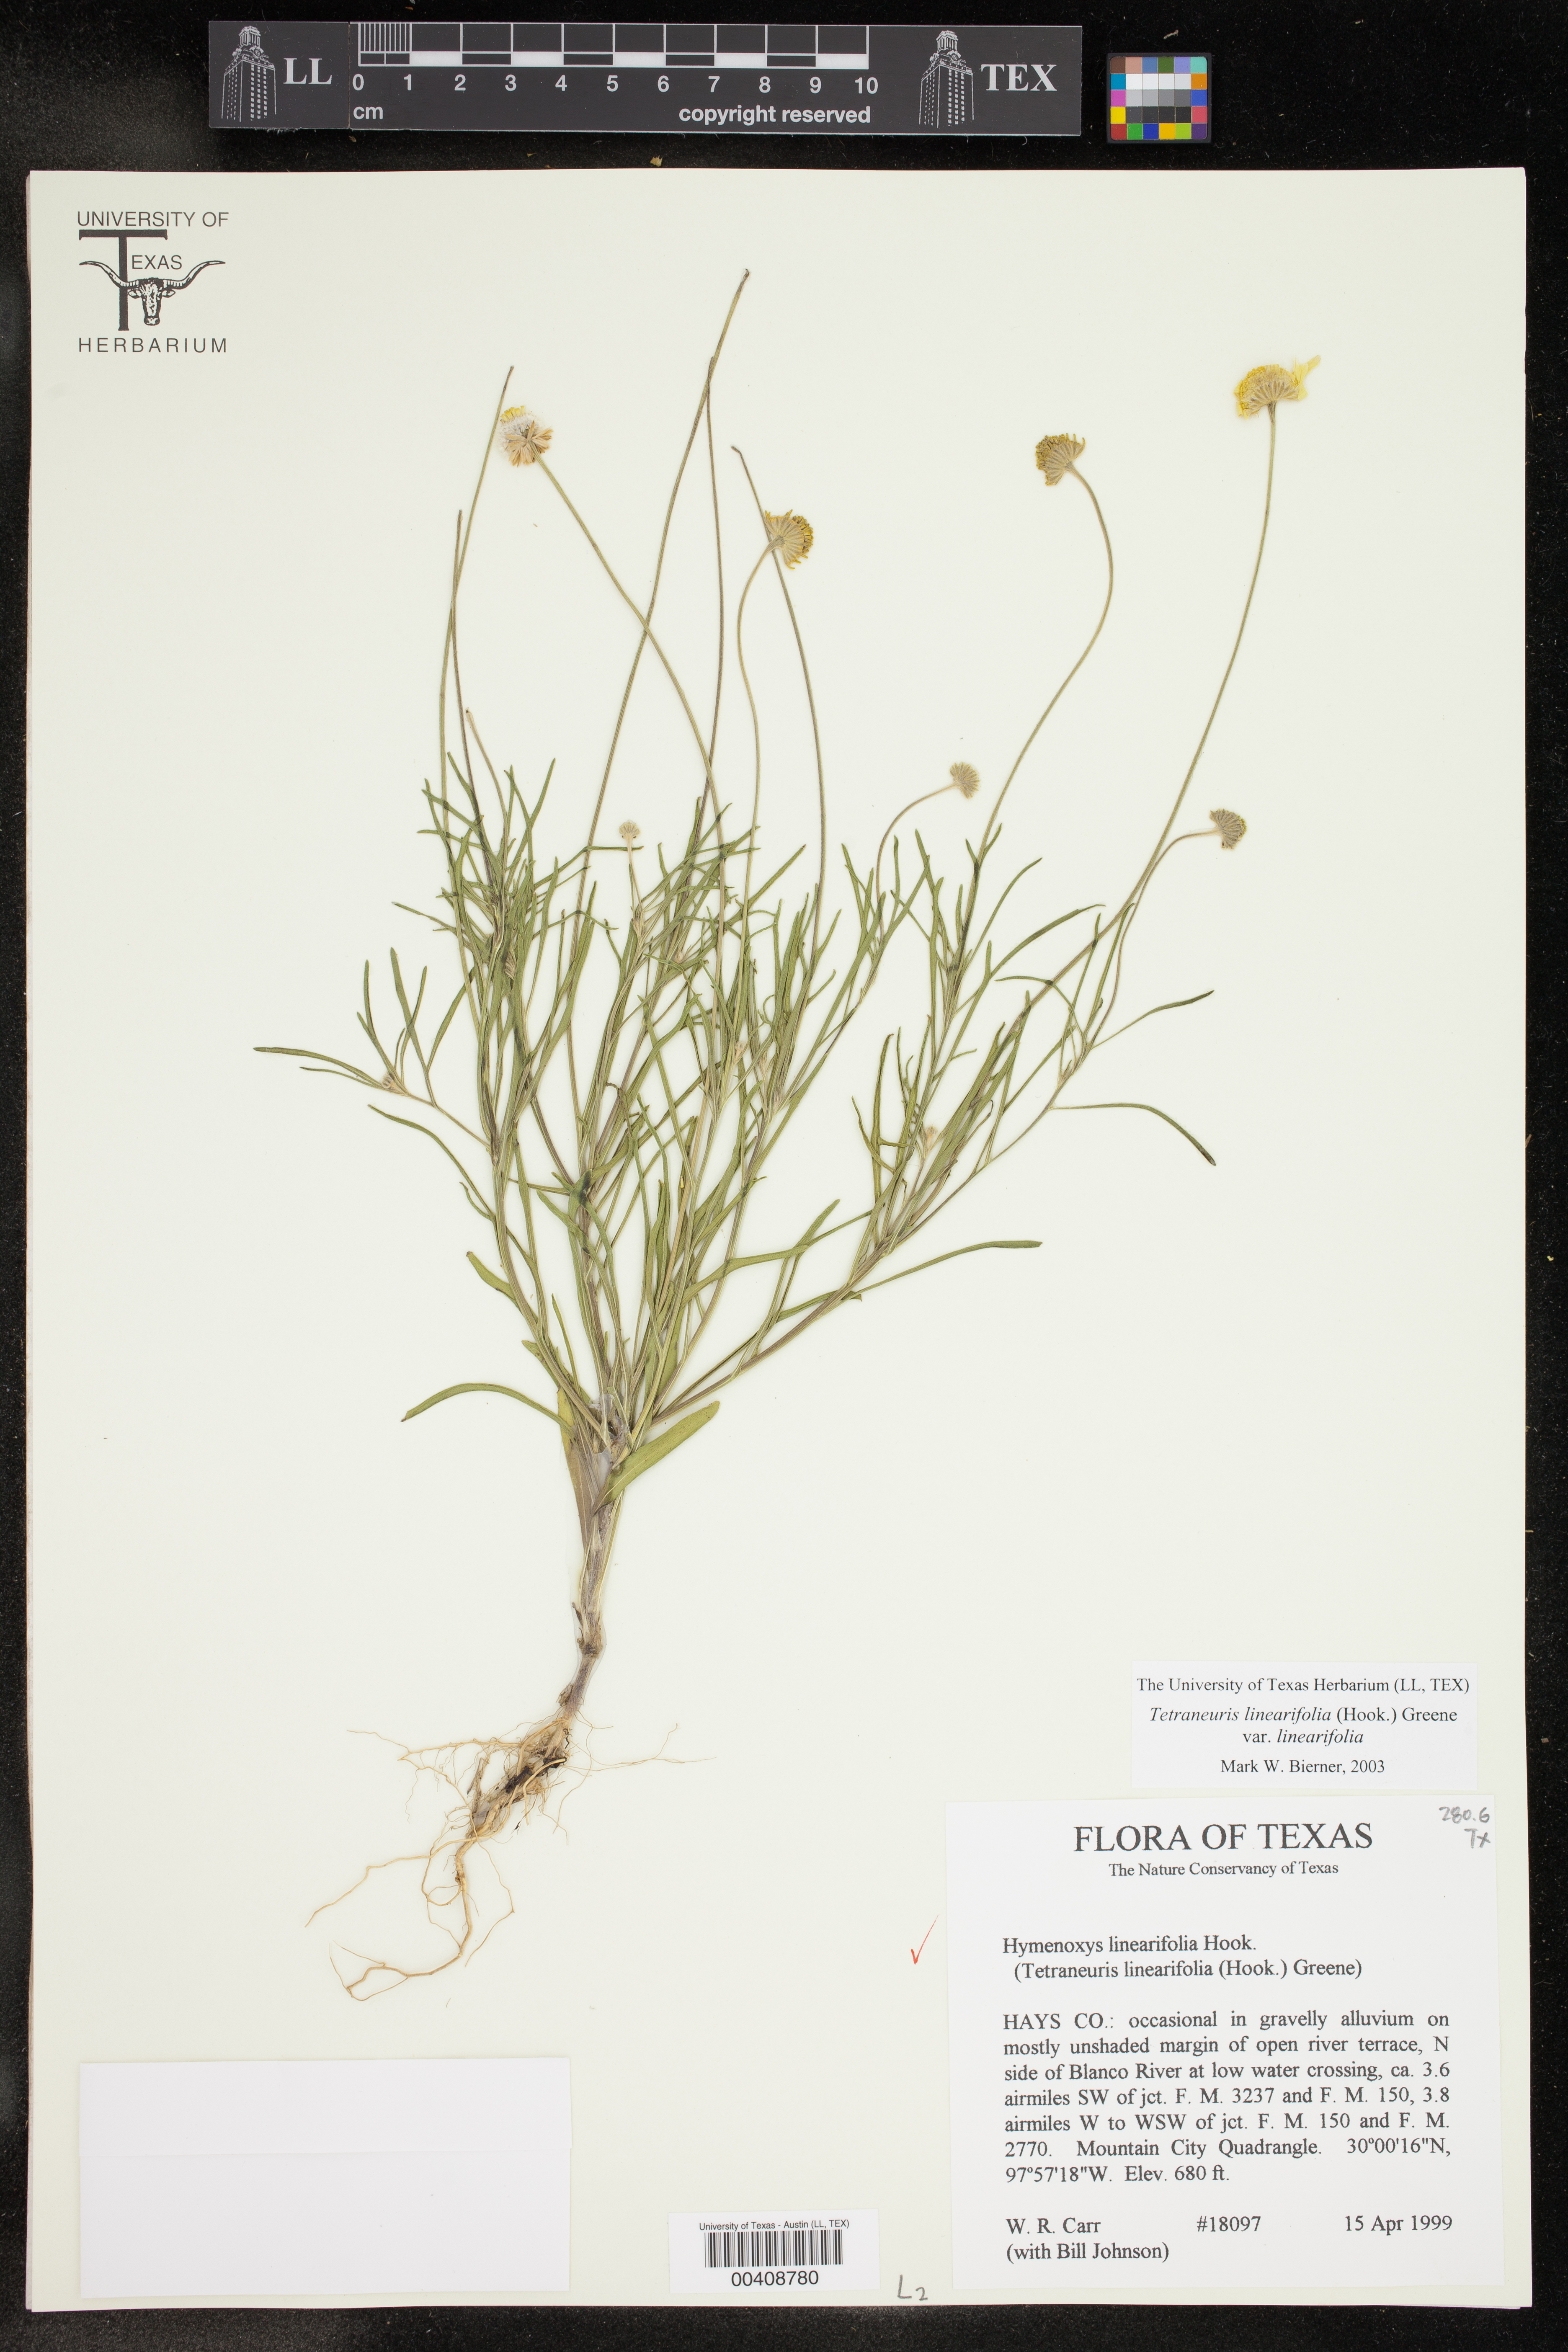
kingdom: Plantae
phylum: Tracheophyta
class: Magnoliopsida
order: Asterales
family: Asteraceae
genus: Tetraneuris
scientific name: Tetraneuris linearifolia
